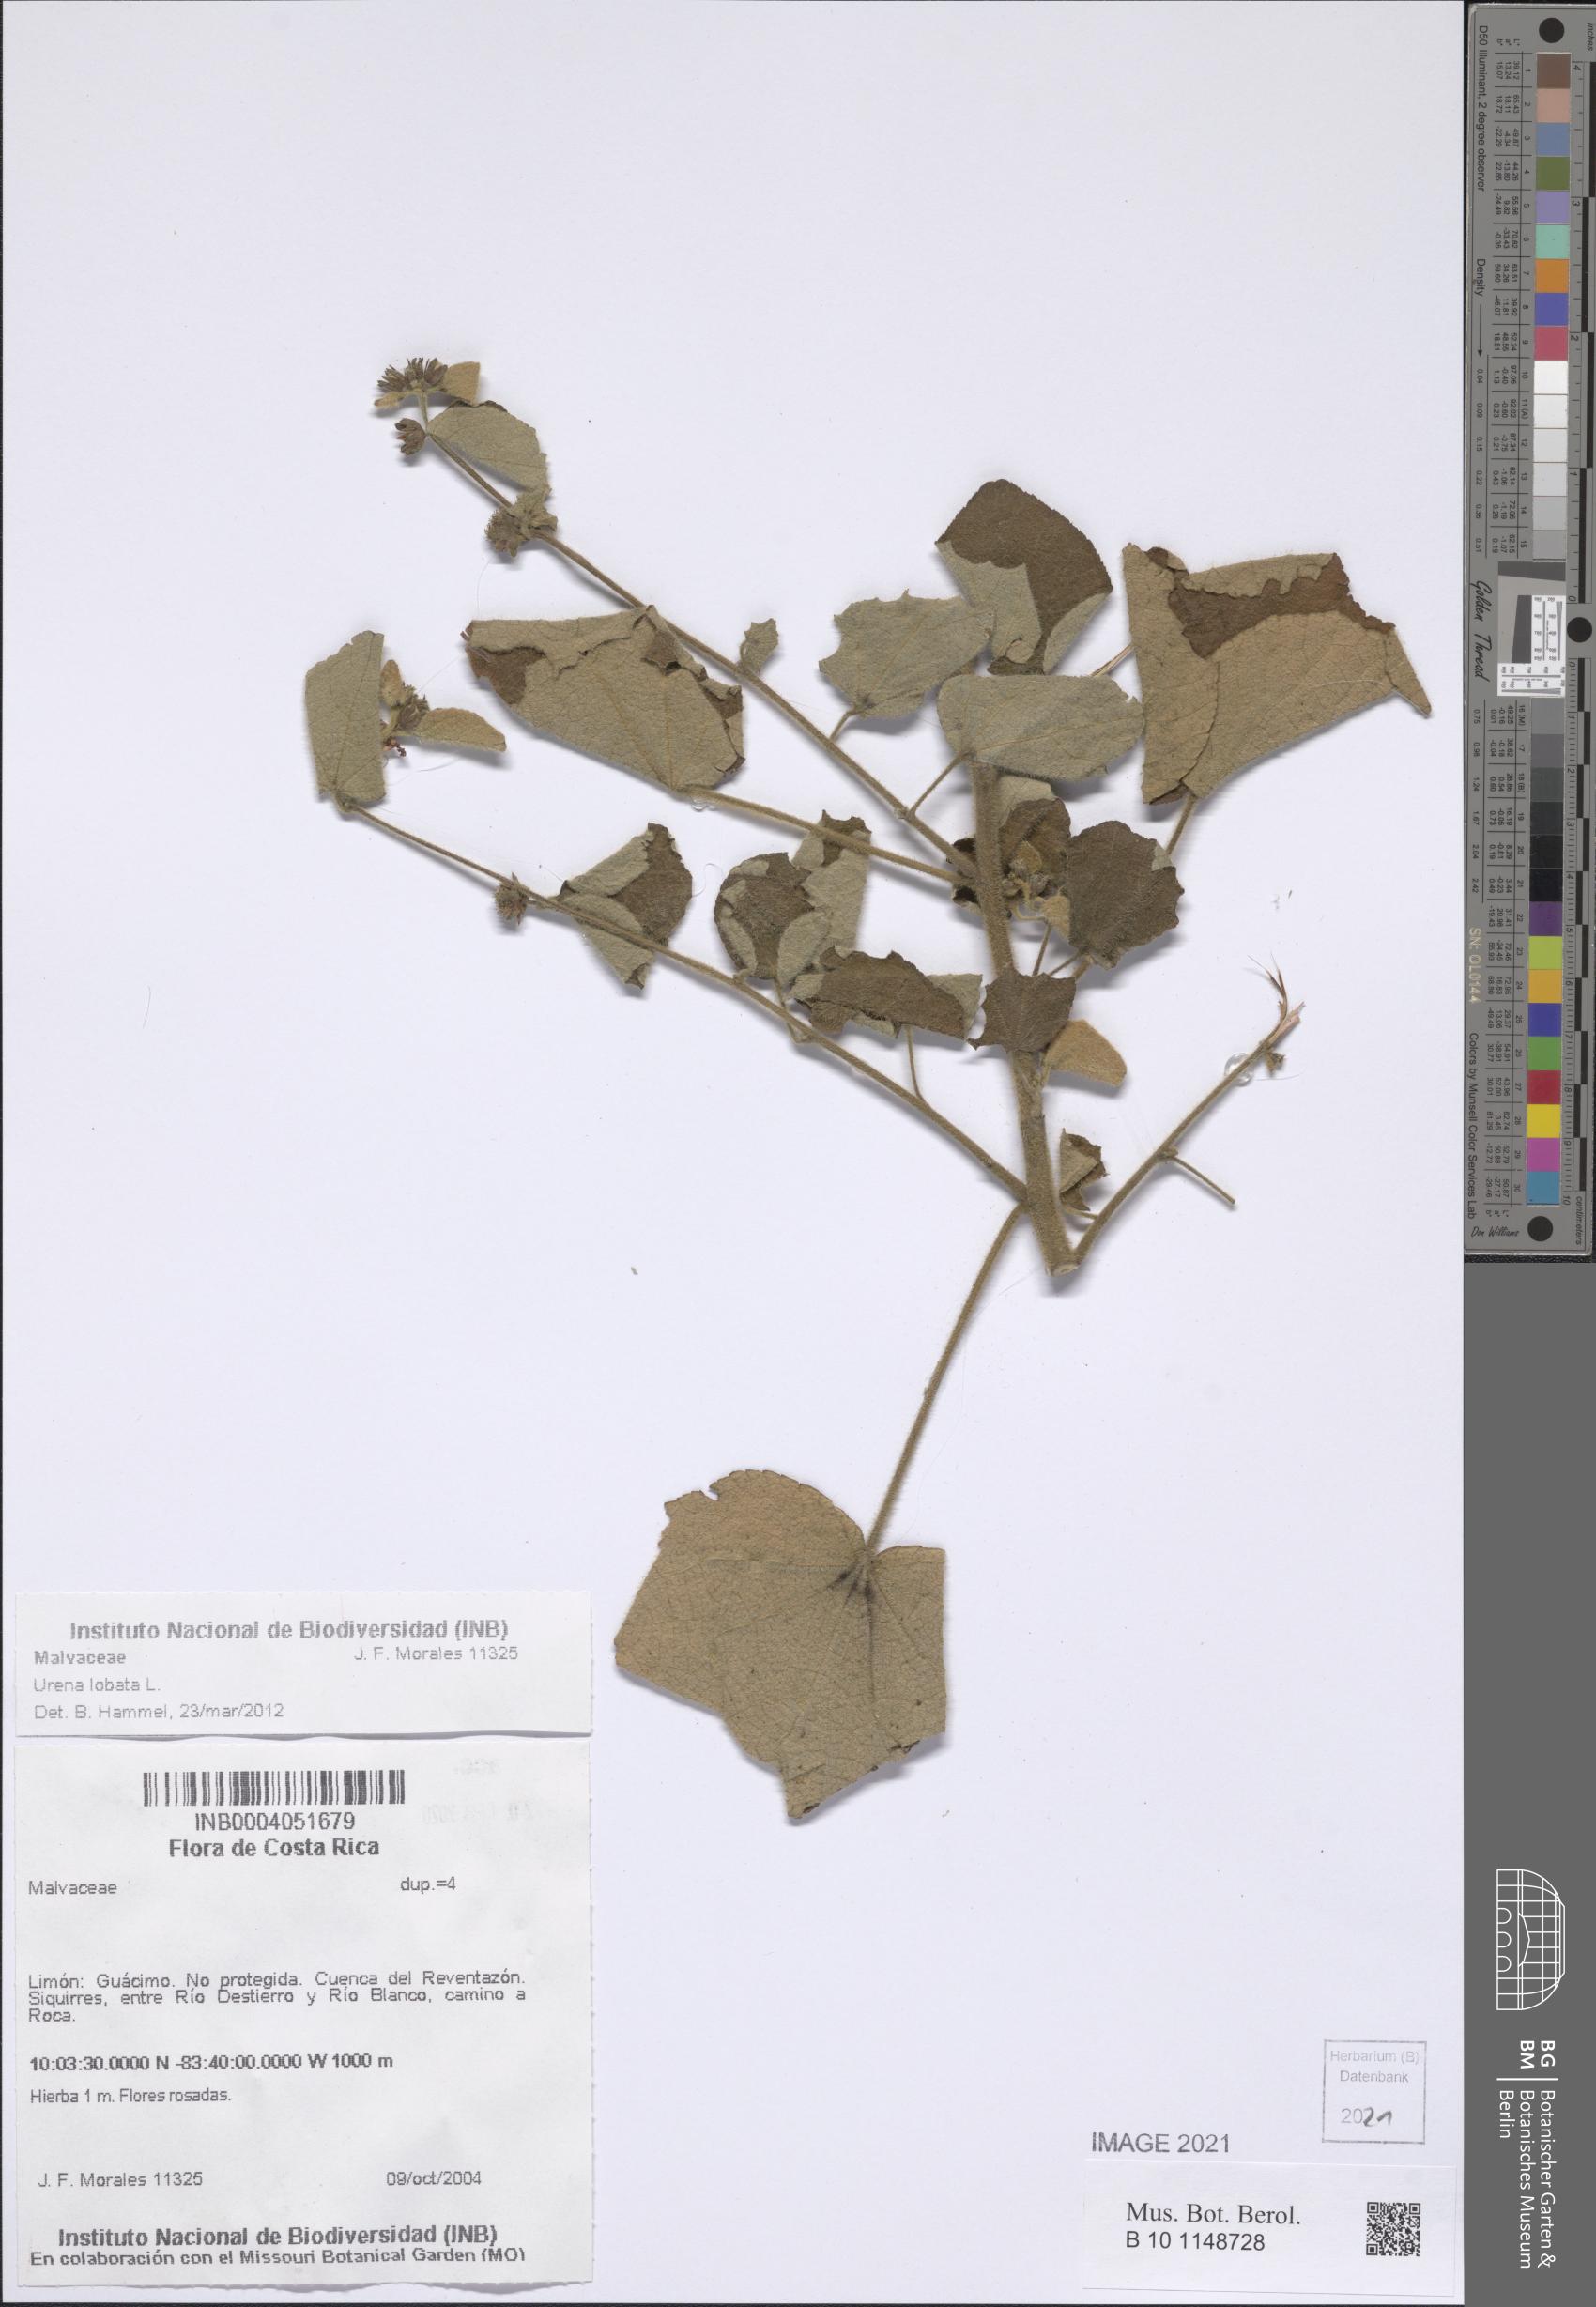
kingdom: Plantae
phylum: Tracheophyta
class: Magnoliopsida
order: Malvales
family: Malvaceae
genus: Urena
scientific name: Urena lobata
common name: Caesarweed
